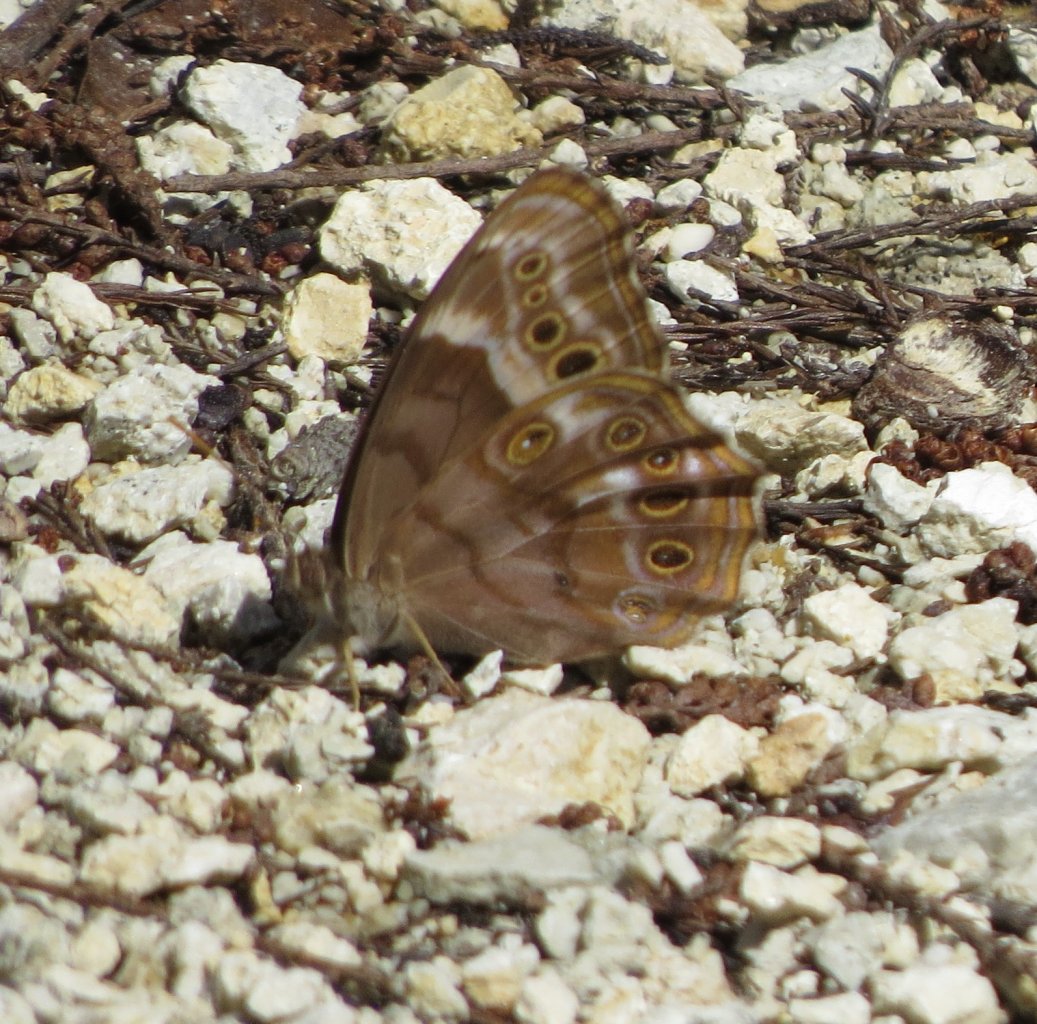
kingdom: Animalia
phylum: Arthropoda
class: Insecta
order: Lepidoptera
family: Nymphalidae
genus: Enodia
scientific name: Enodia portlandia
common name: Southern Pearly Eye
